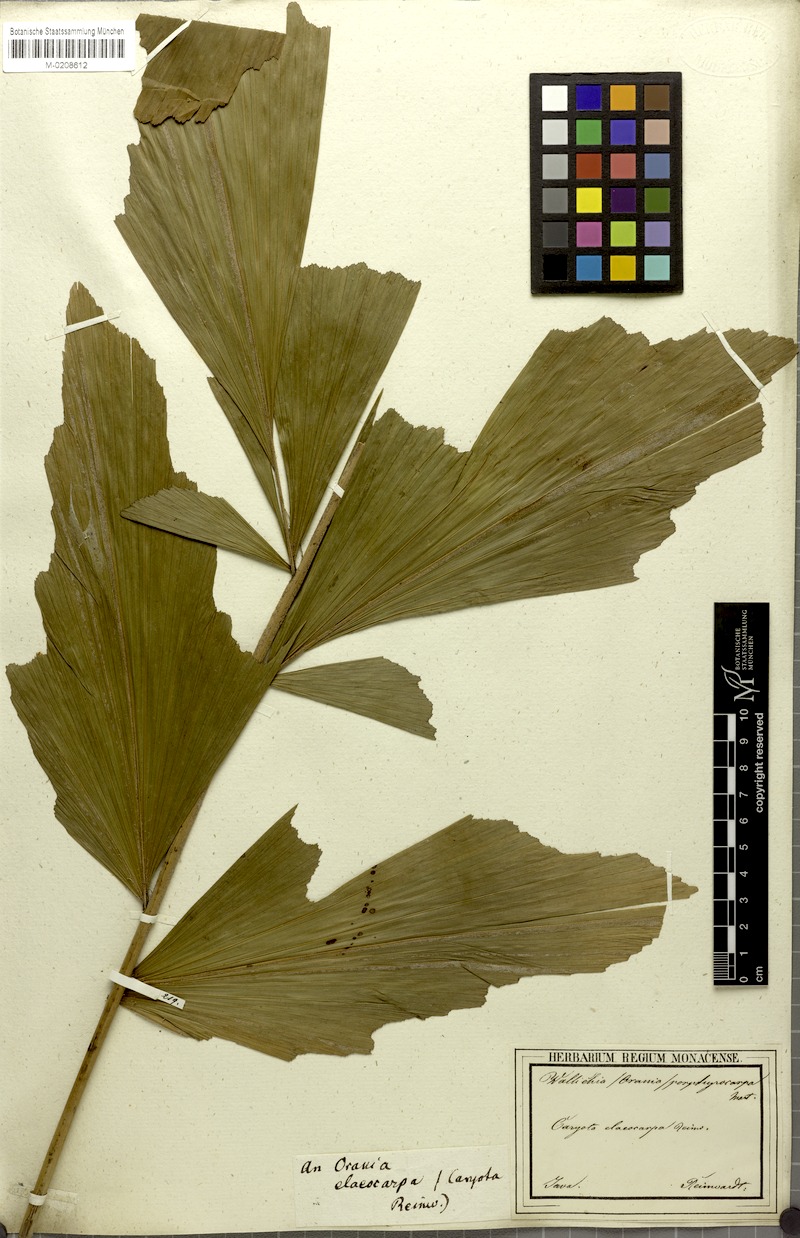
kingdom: Plantae
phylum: Tracheophyta
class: Liliopsida
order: Arecales
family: Arecaceae
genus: Arenga
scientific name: Arenga porphyrocarpa
